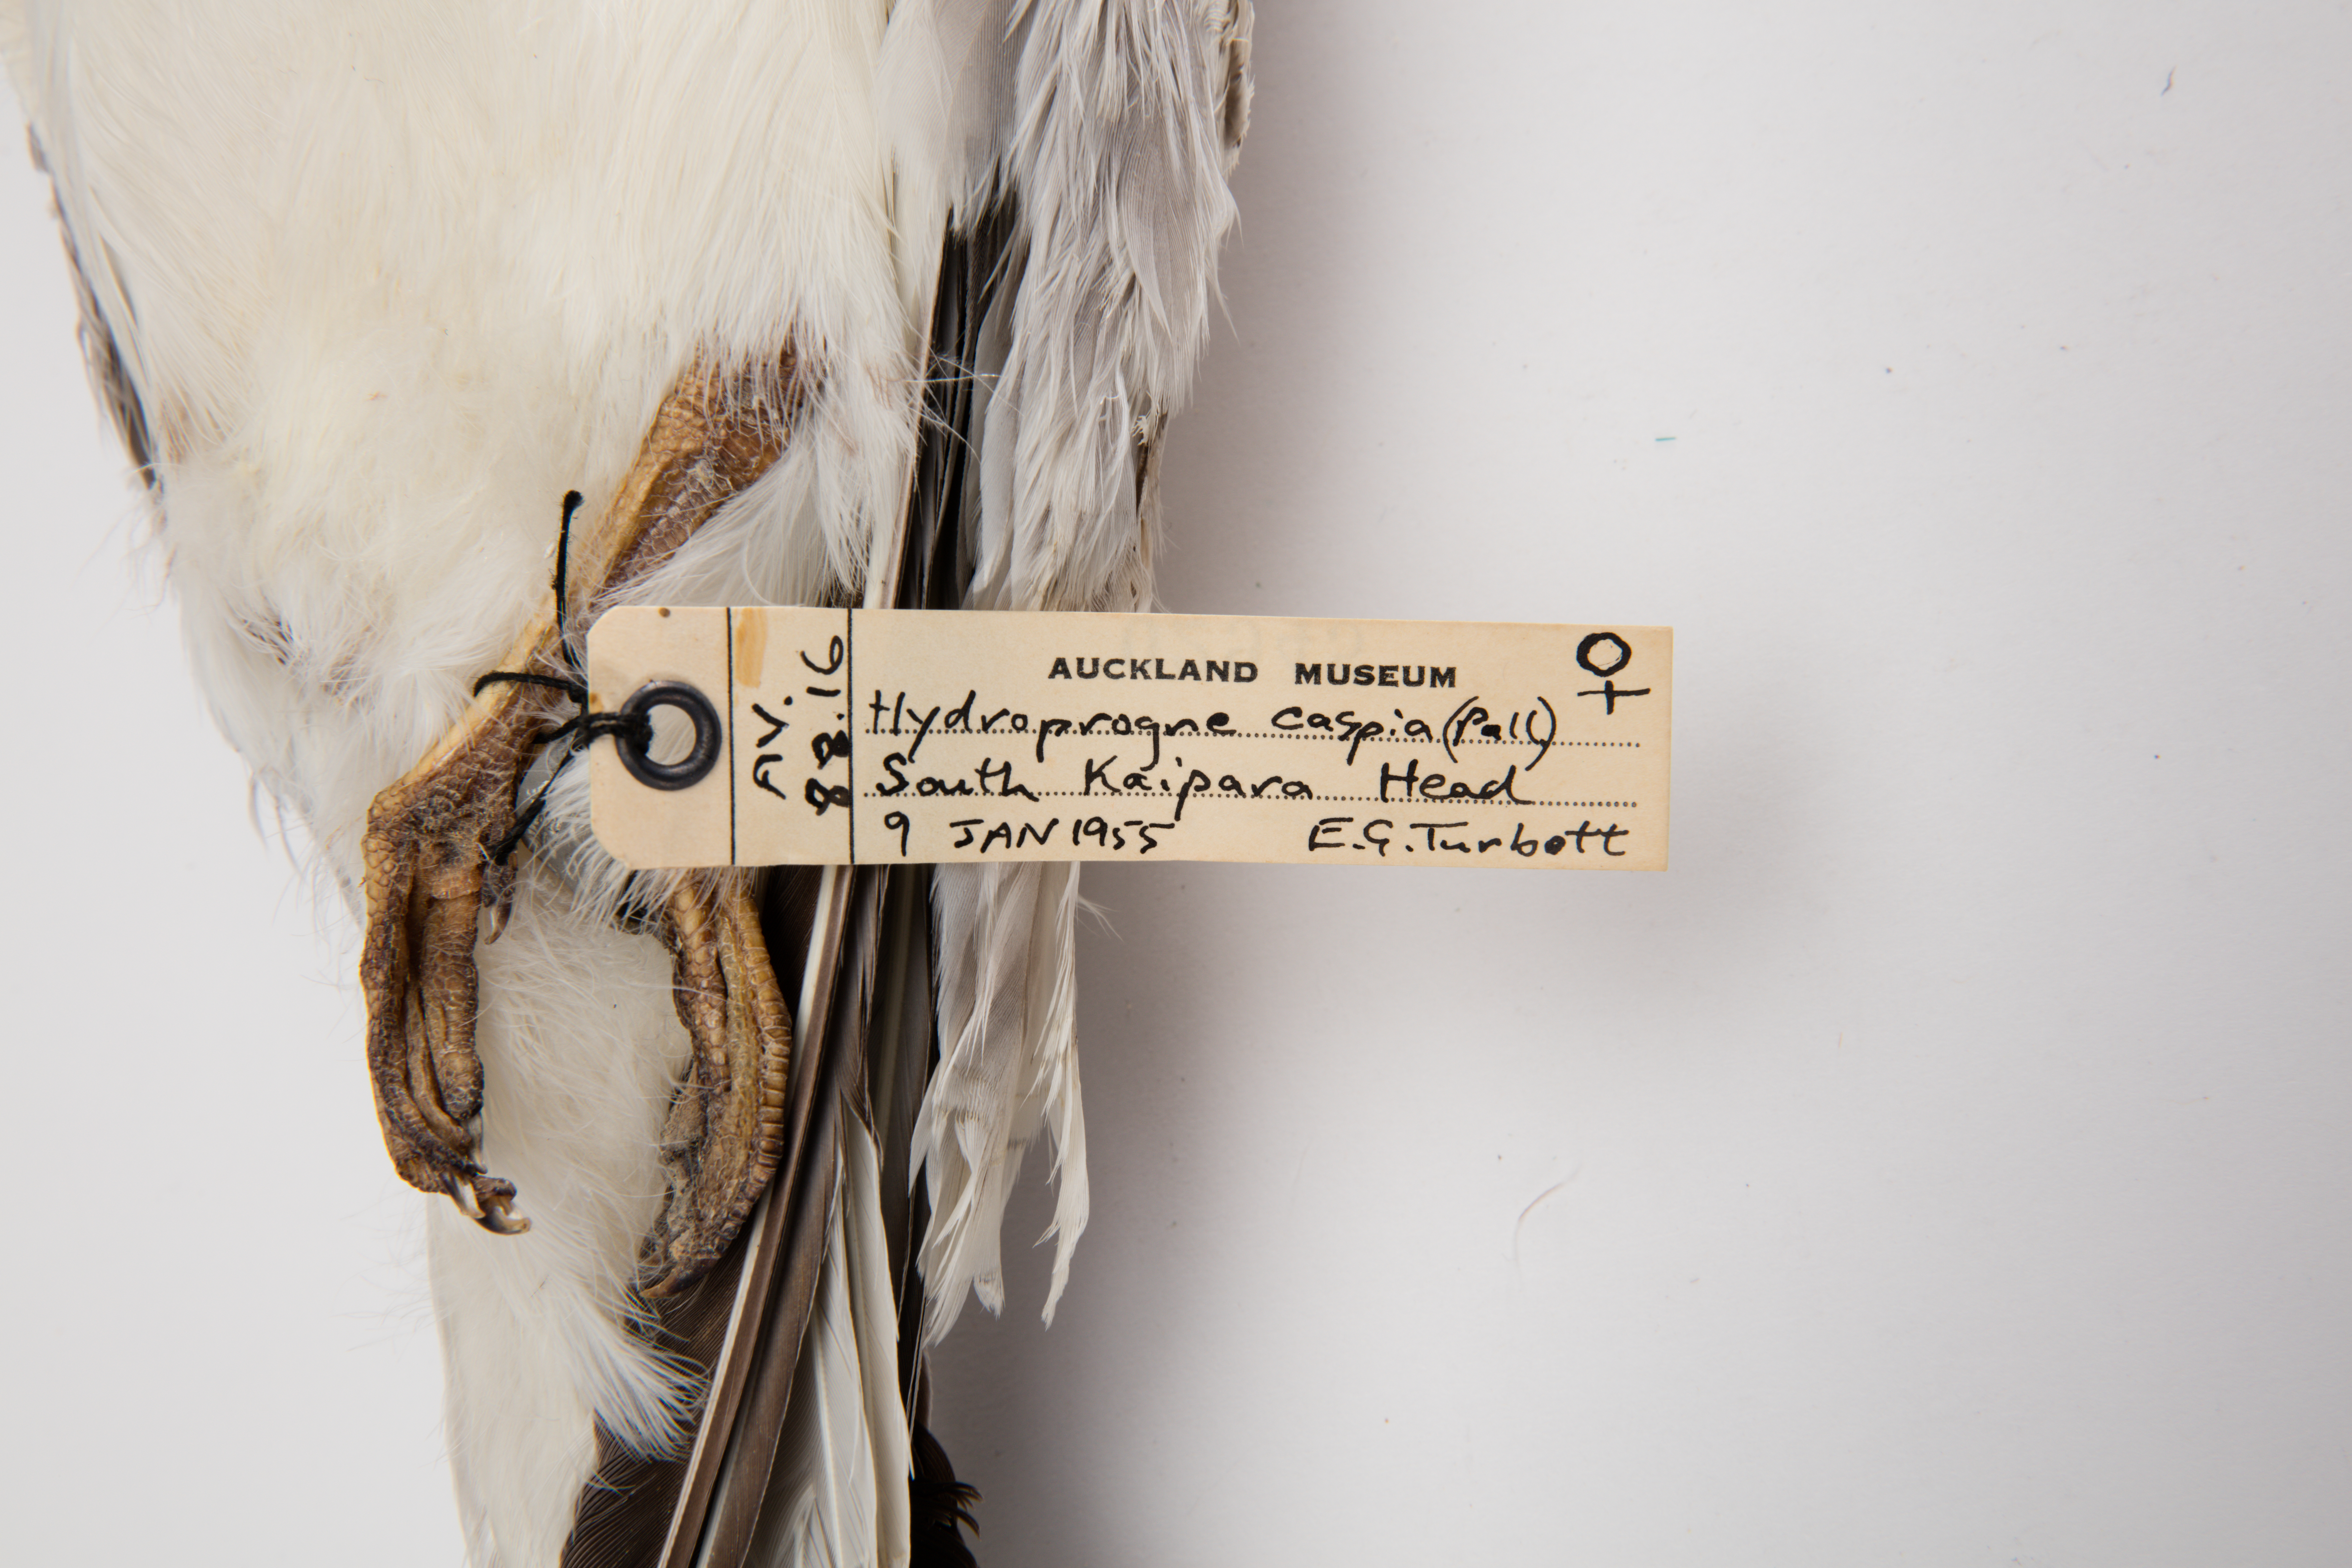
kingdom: Animalia
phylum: Chordata
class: Aves
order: Charadriiformes
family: Laridae
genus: Hydroprogne
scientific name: Hydroprogne caspia
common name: Caspian tern
